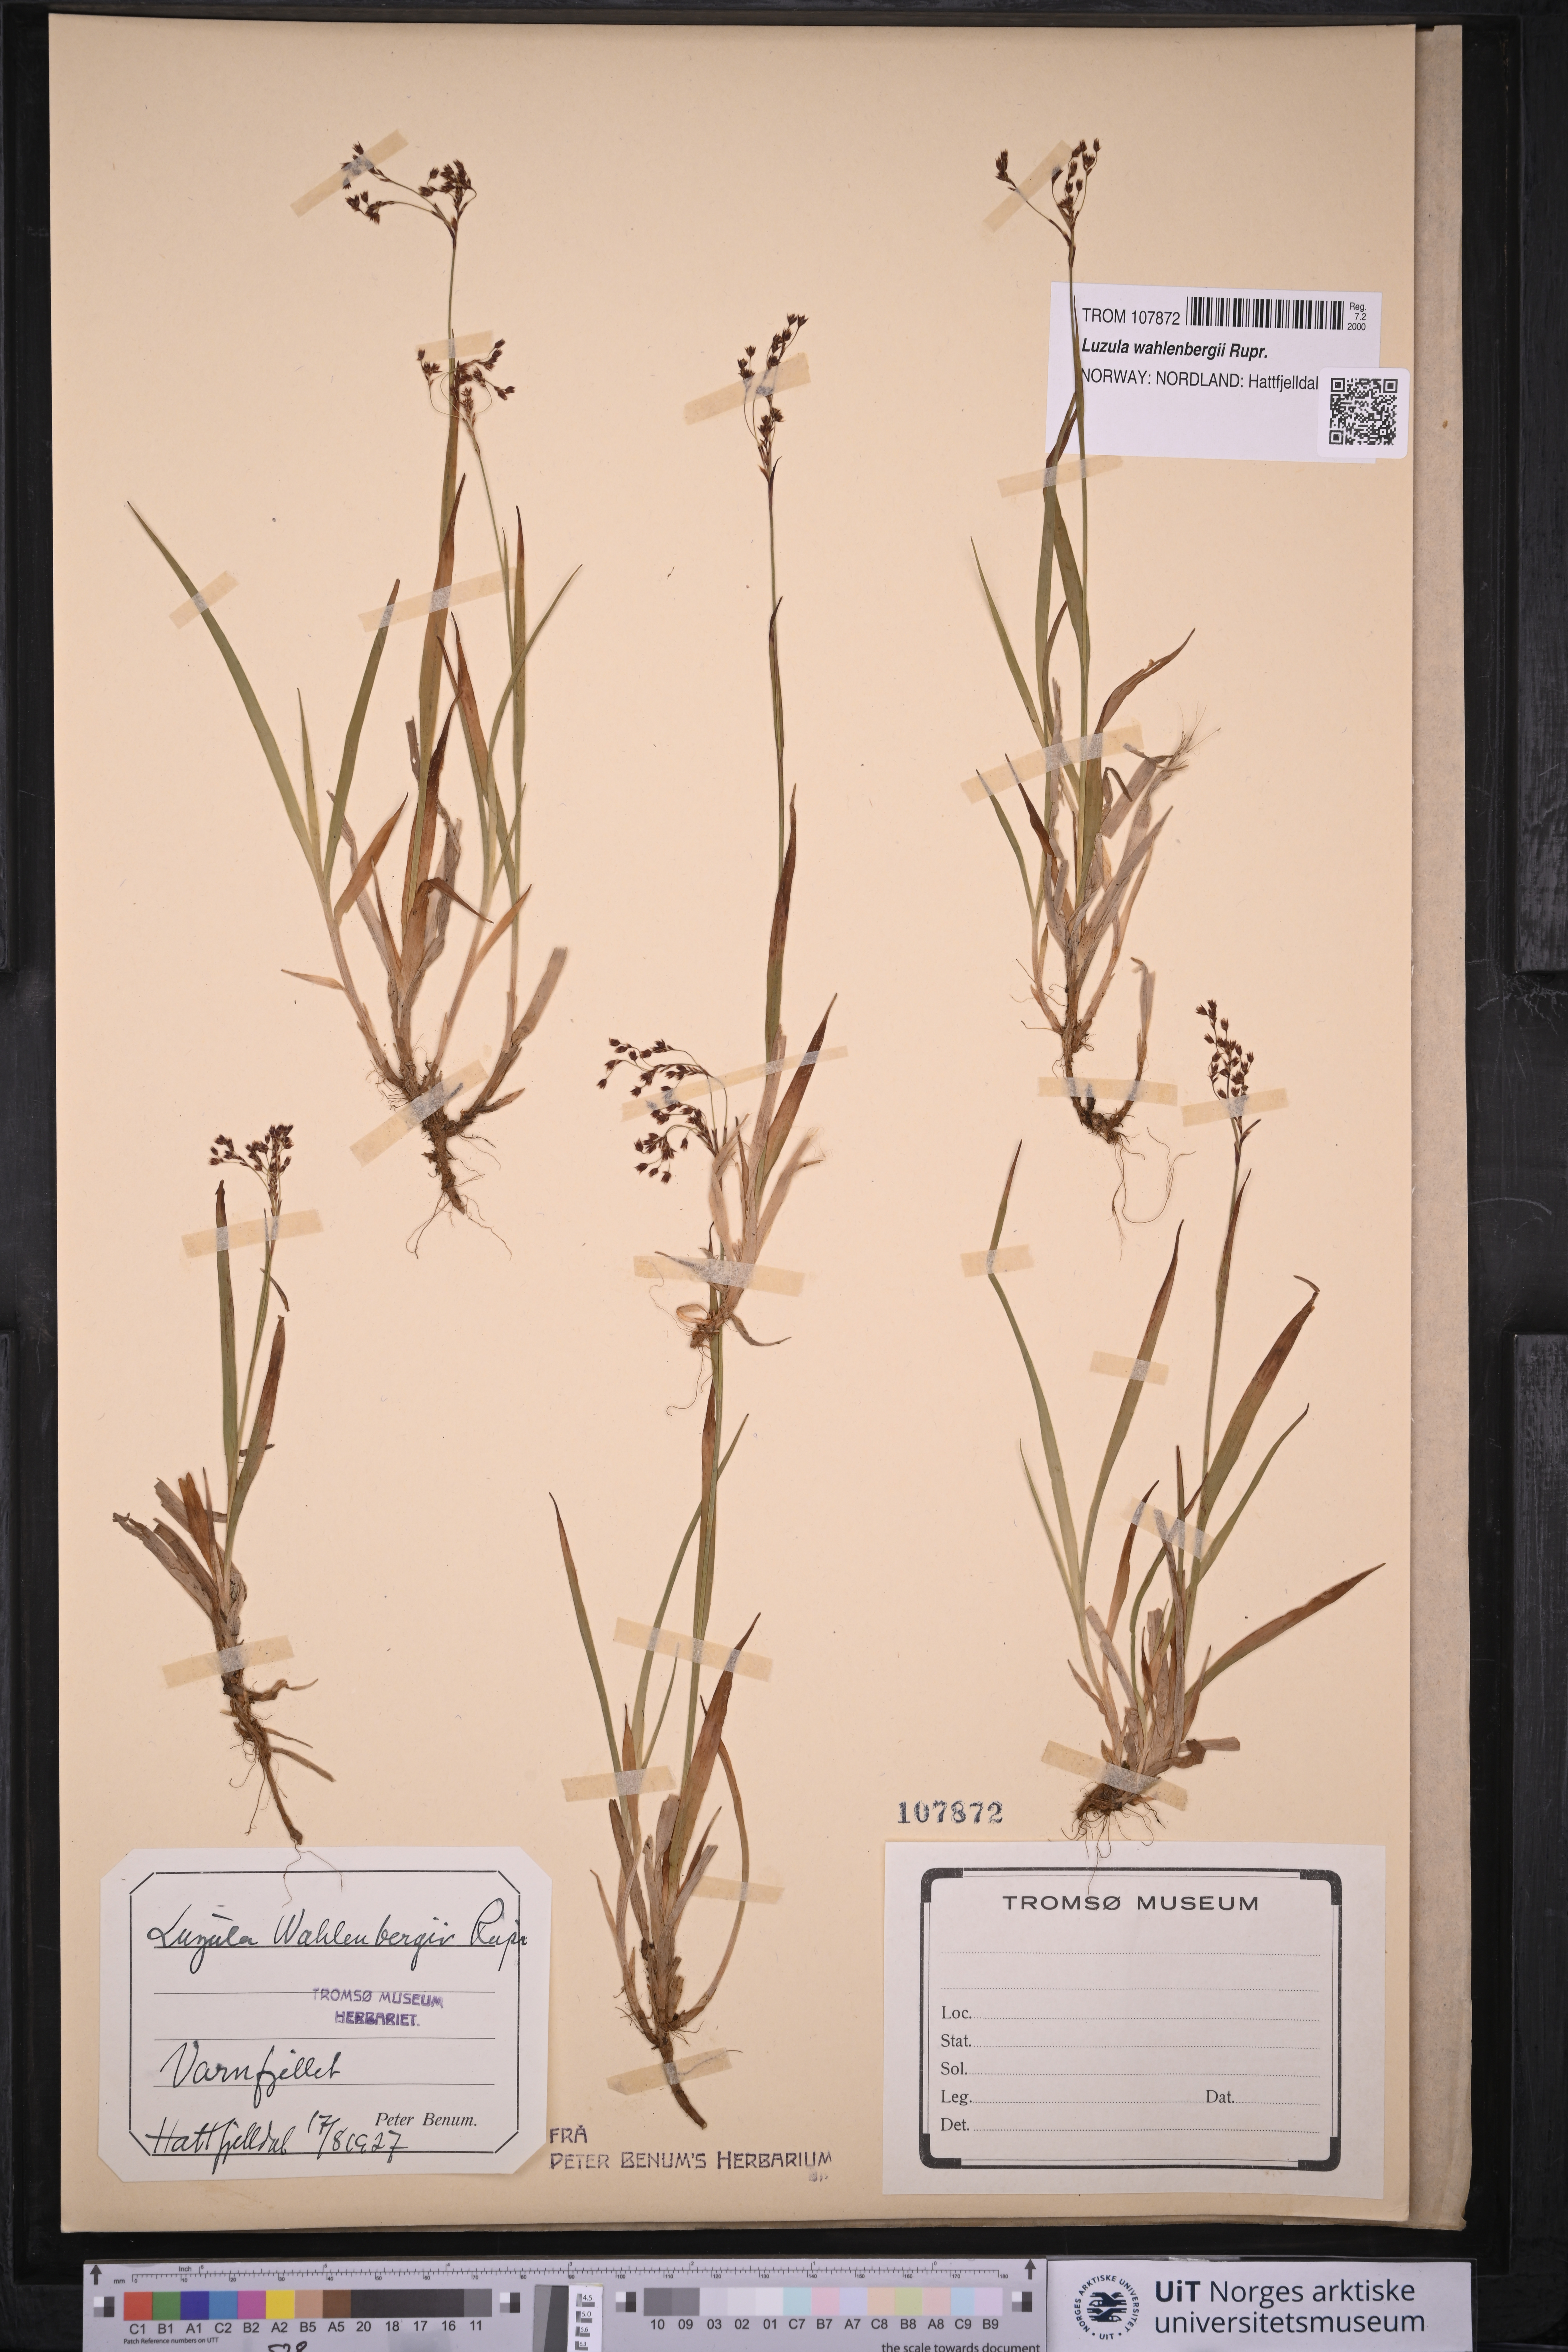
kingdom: Plantae
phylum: Tracheophyta
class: Liliopsida
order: Poales
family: Juncaceae
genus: Luzula
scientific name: Luzula wahlenbergii
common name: Wahlenberg's wood-rush
